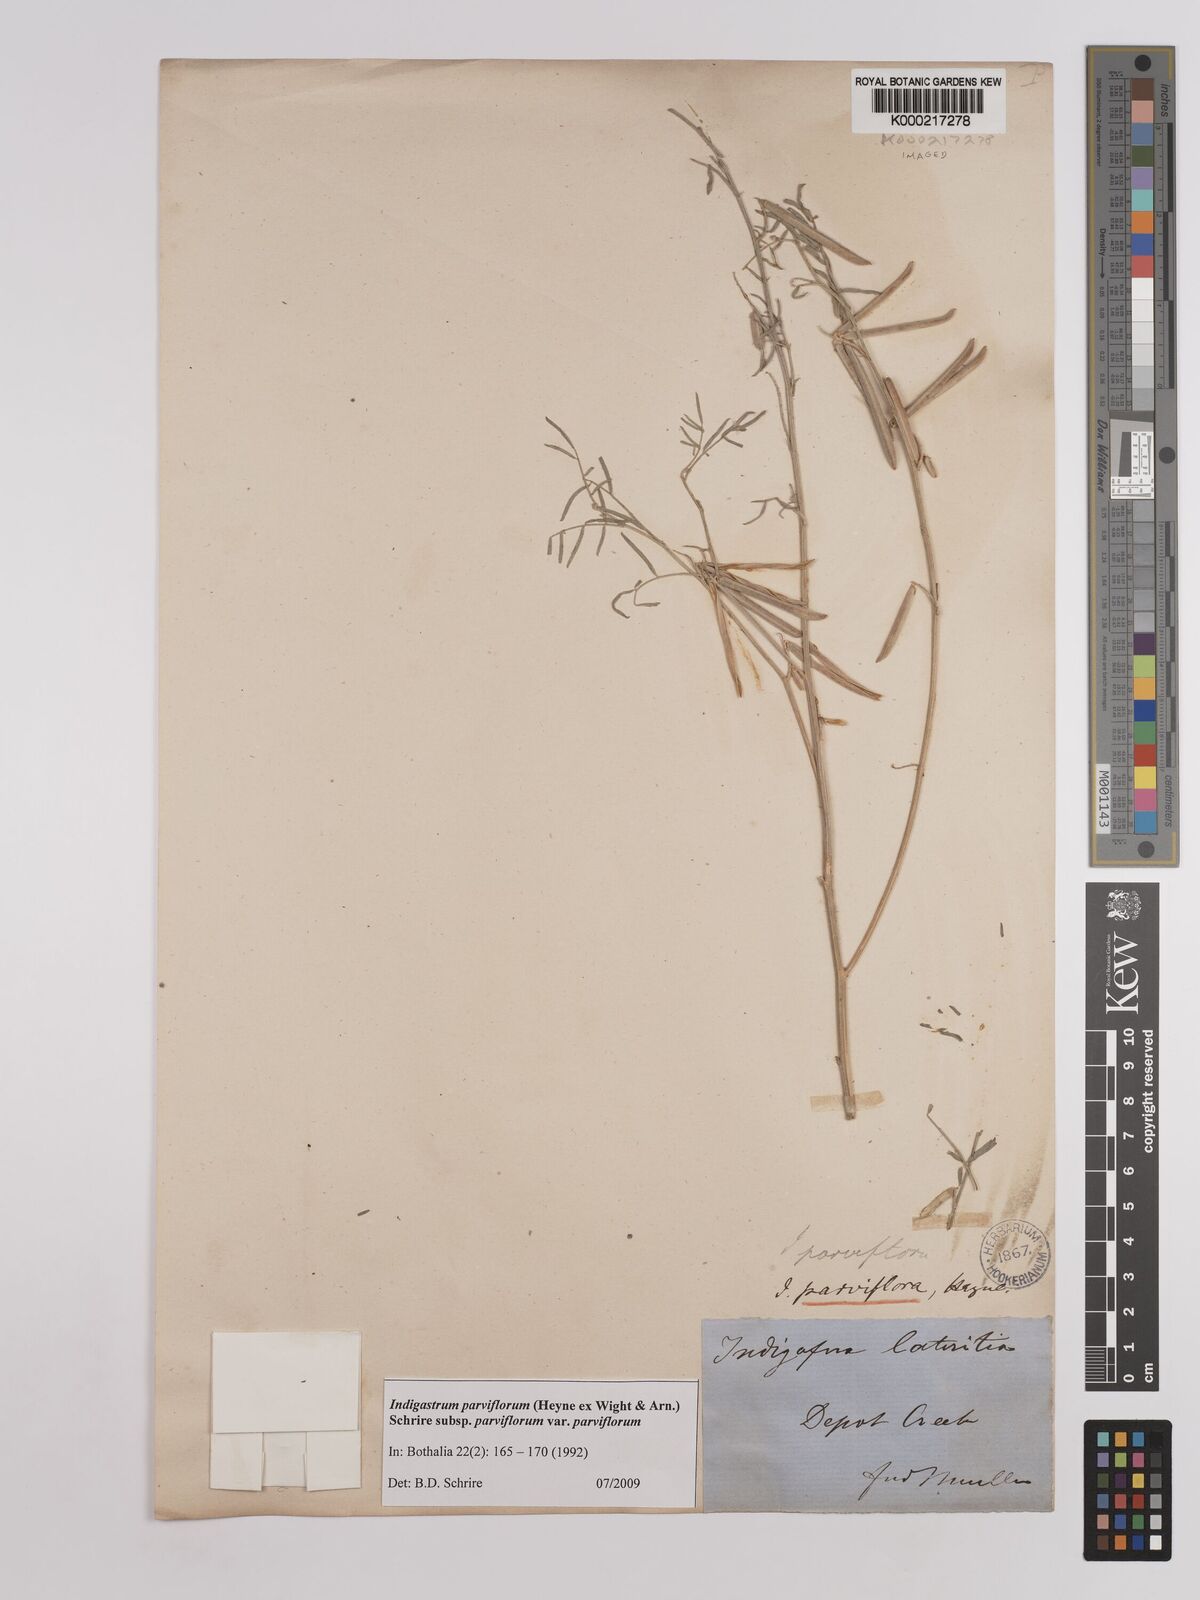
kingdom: Plantae
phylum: Tracheophyta
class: Magnoliopsida
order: Fabales
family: Fabaceae
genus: Indigastrum
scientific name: Indigastrum parviflorum
